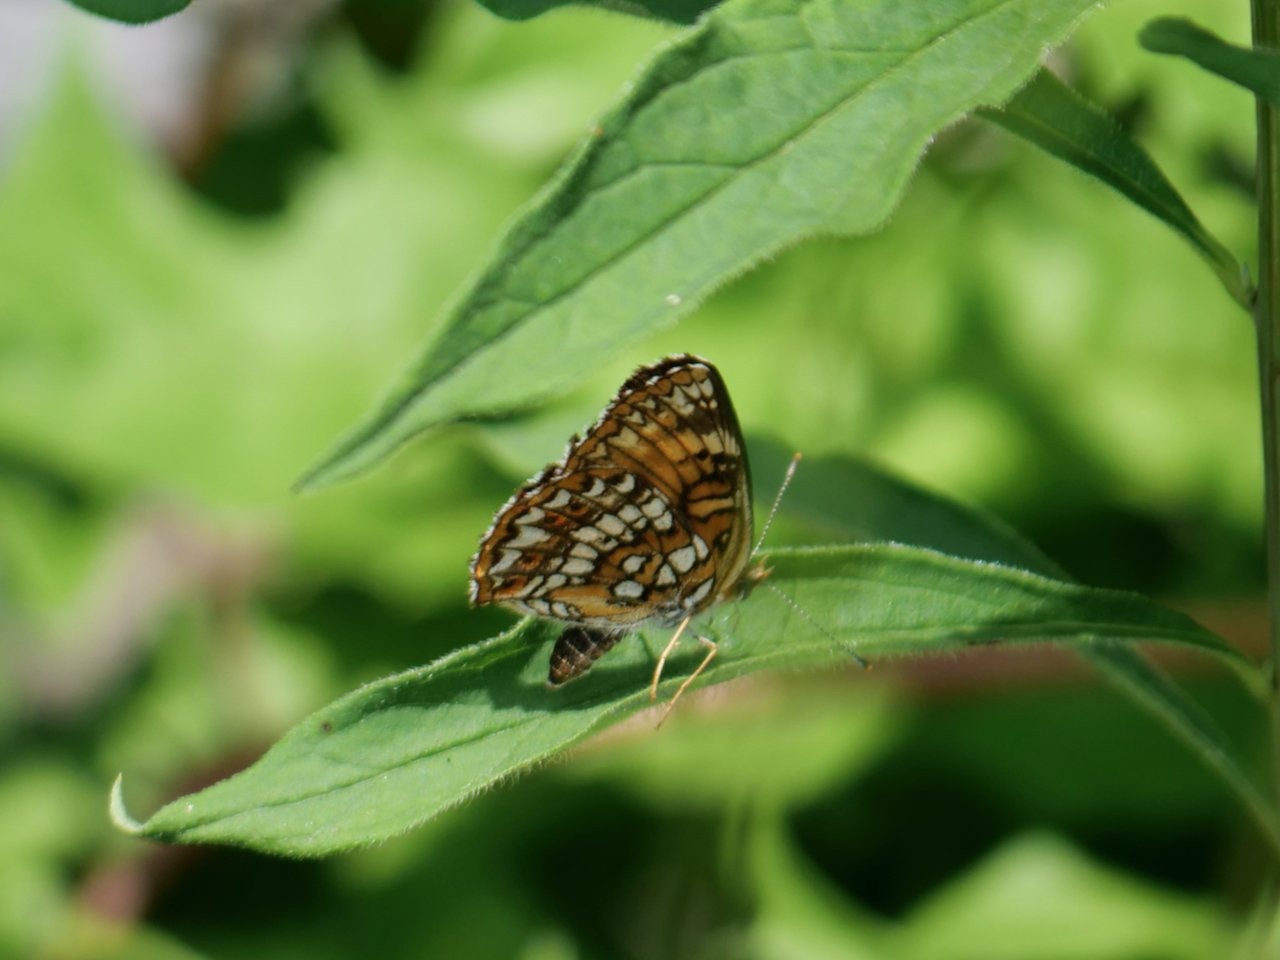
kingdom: Animalia
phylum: Arthropoda
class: Insecta
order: Lepidoptera
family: Nymphalidae
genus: Chlosyne
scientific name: Chlosyne harrisii
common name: Harris's Checkerspot
